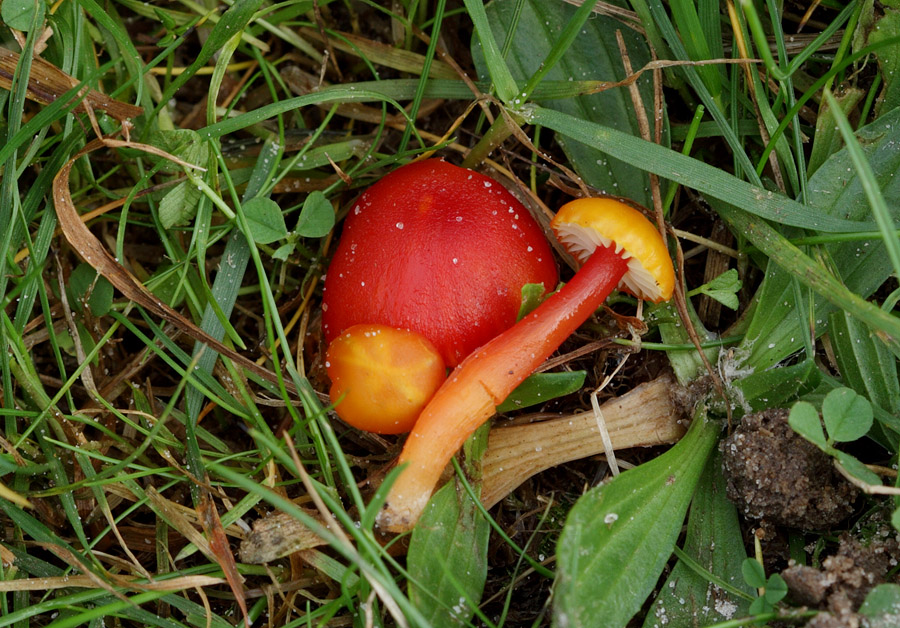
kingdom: Fungi
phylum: Basidiomycota
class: Agaricomycetes
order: Agaricales
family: Hygrophoraceae
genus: Hygrocybe
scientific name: Hygrocybe insipida
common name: liden vokshat
